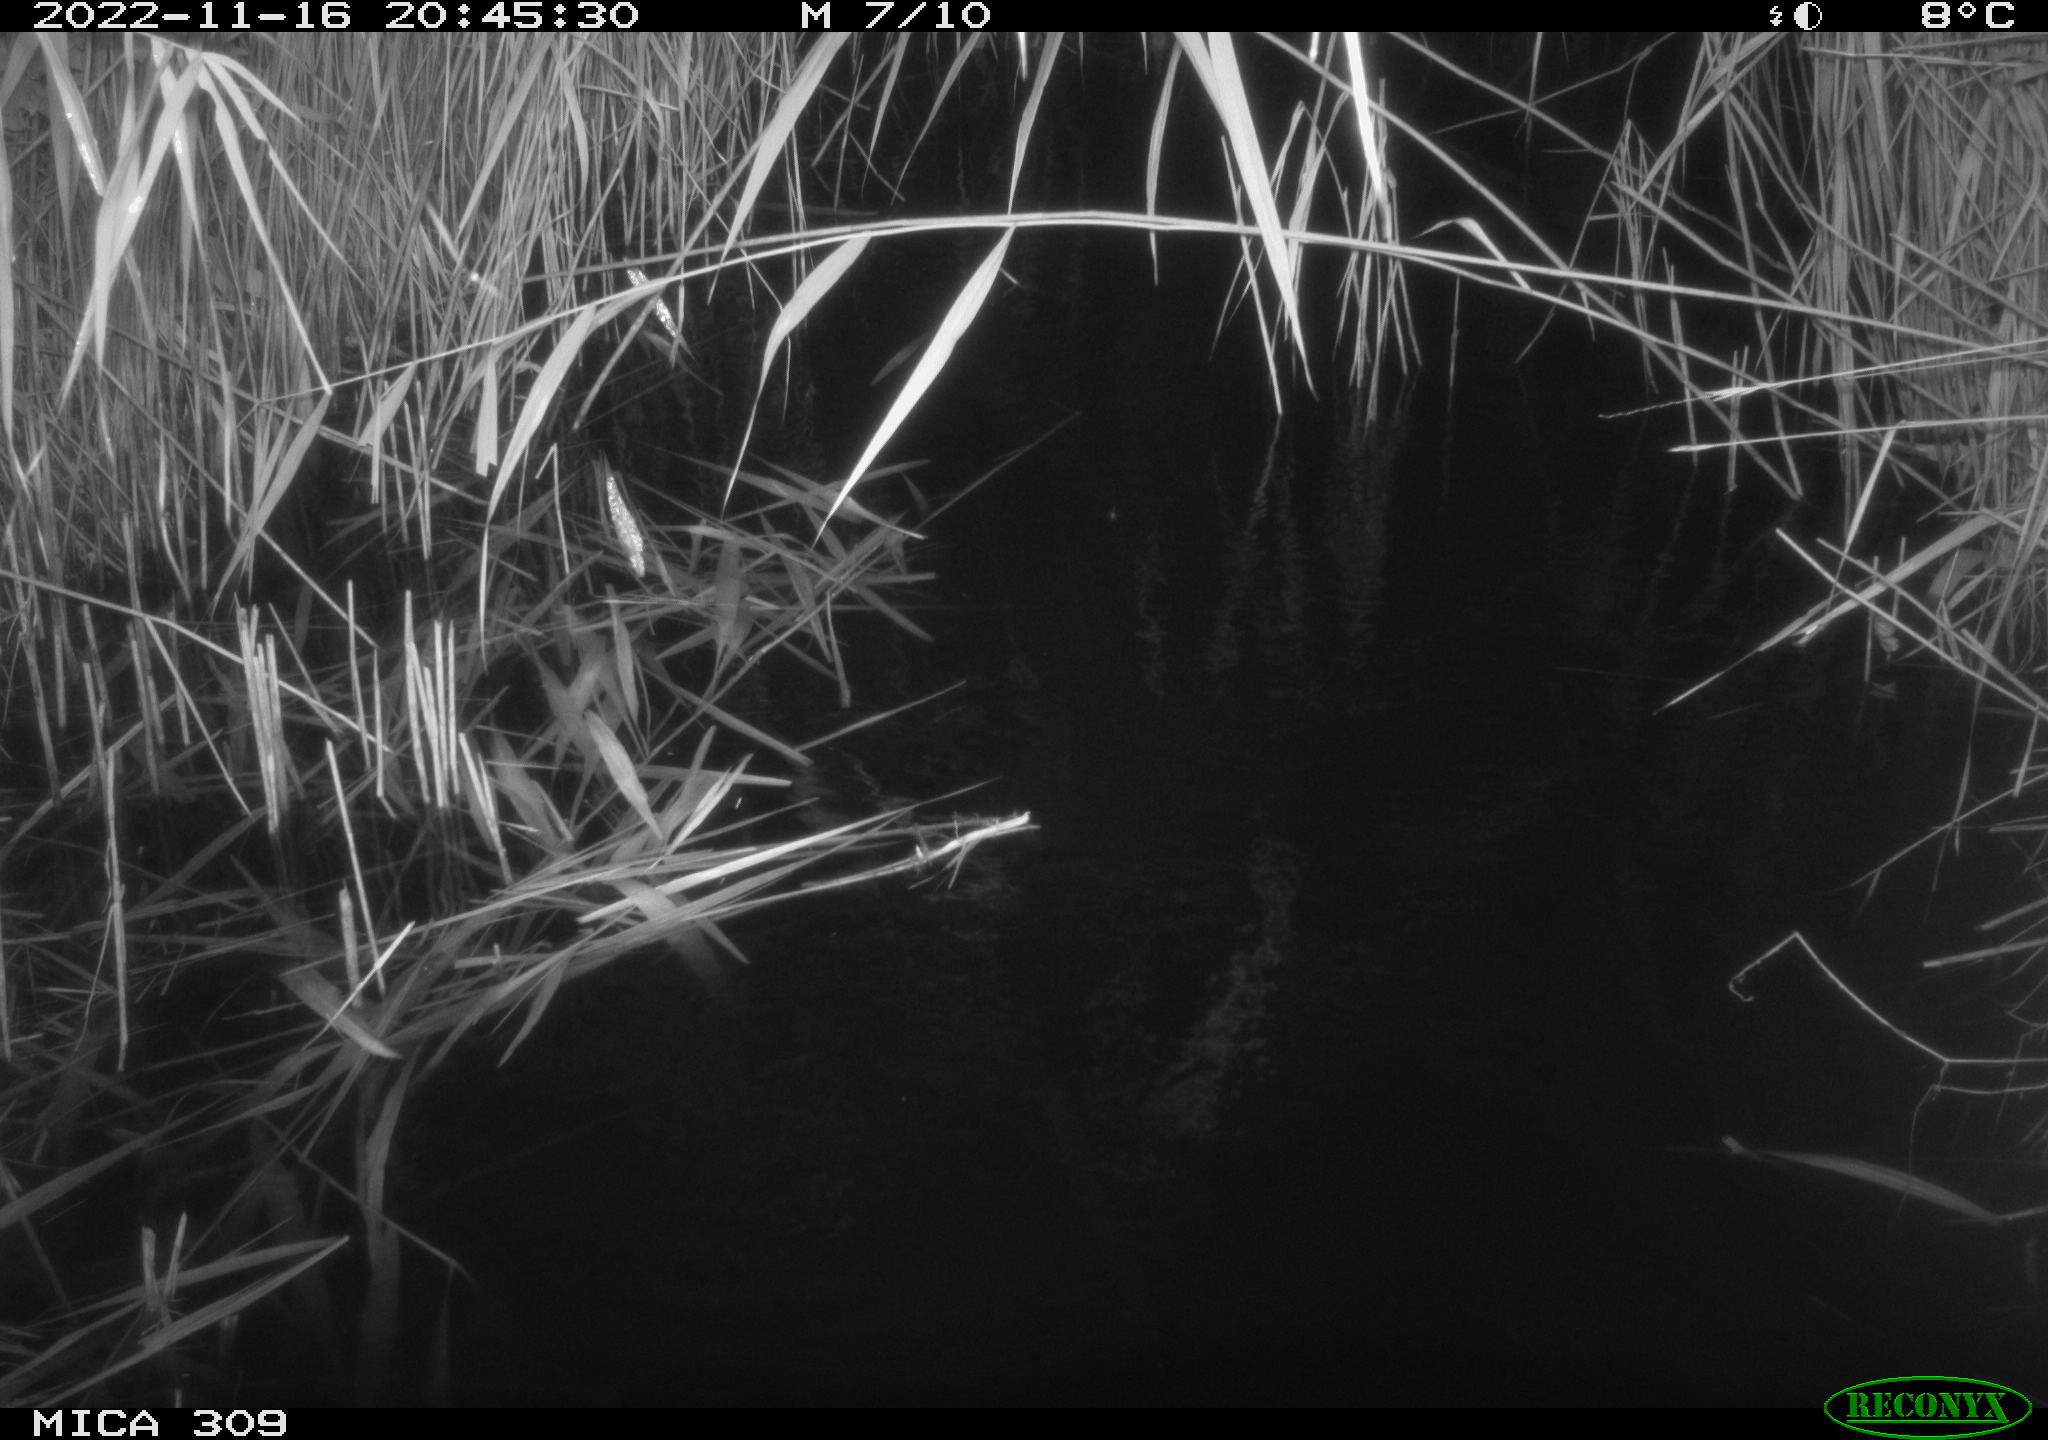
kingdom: Animalia
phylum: Chordata
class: Mammalia
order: Rodentia
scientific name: Rodentia
